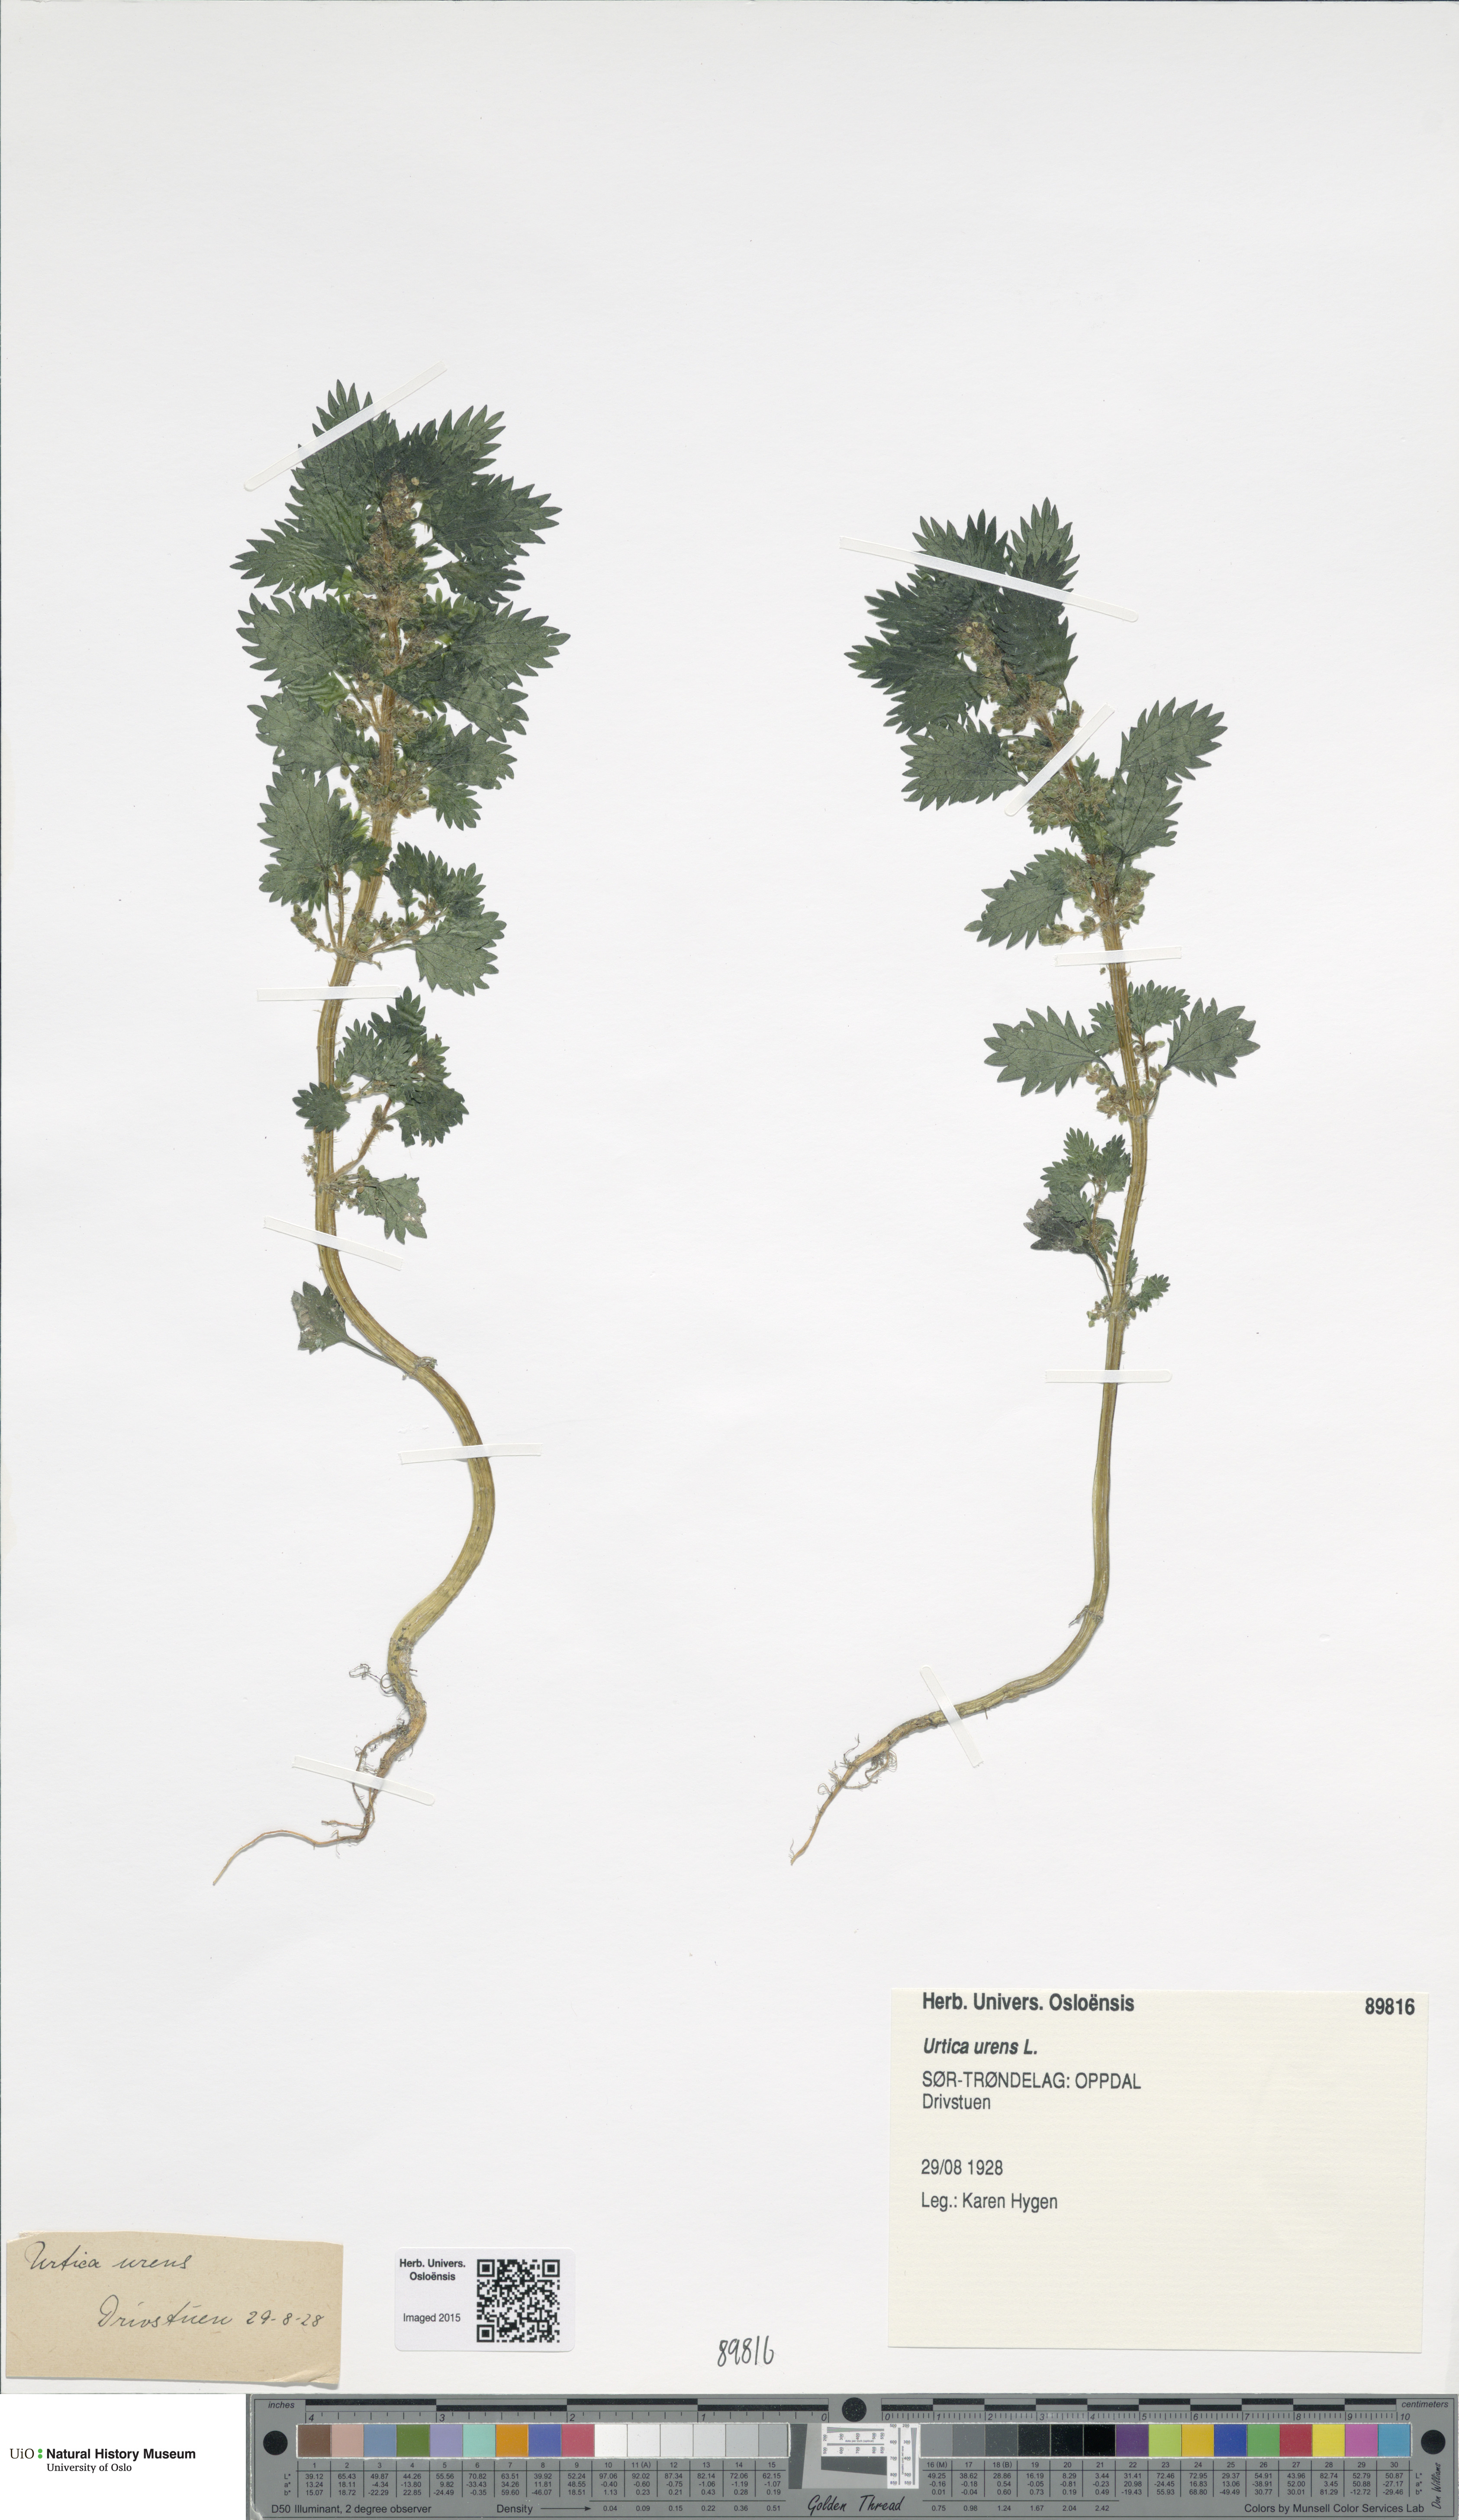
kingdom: Plantae
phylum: Tracheophyta
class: Magnoliopsida
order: Rosales
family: Urticaceae
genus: Urtica
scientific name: Urtica urens
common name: Dwarf nettle
